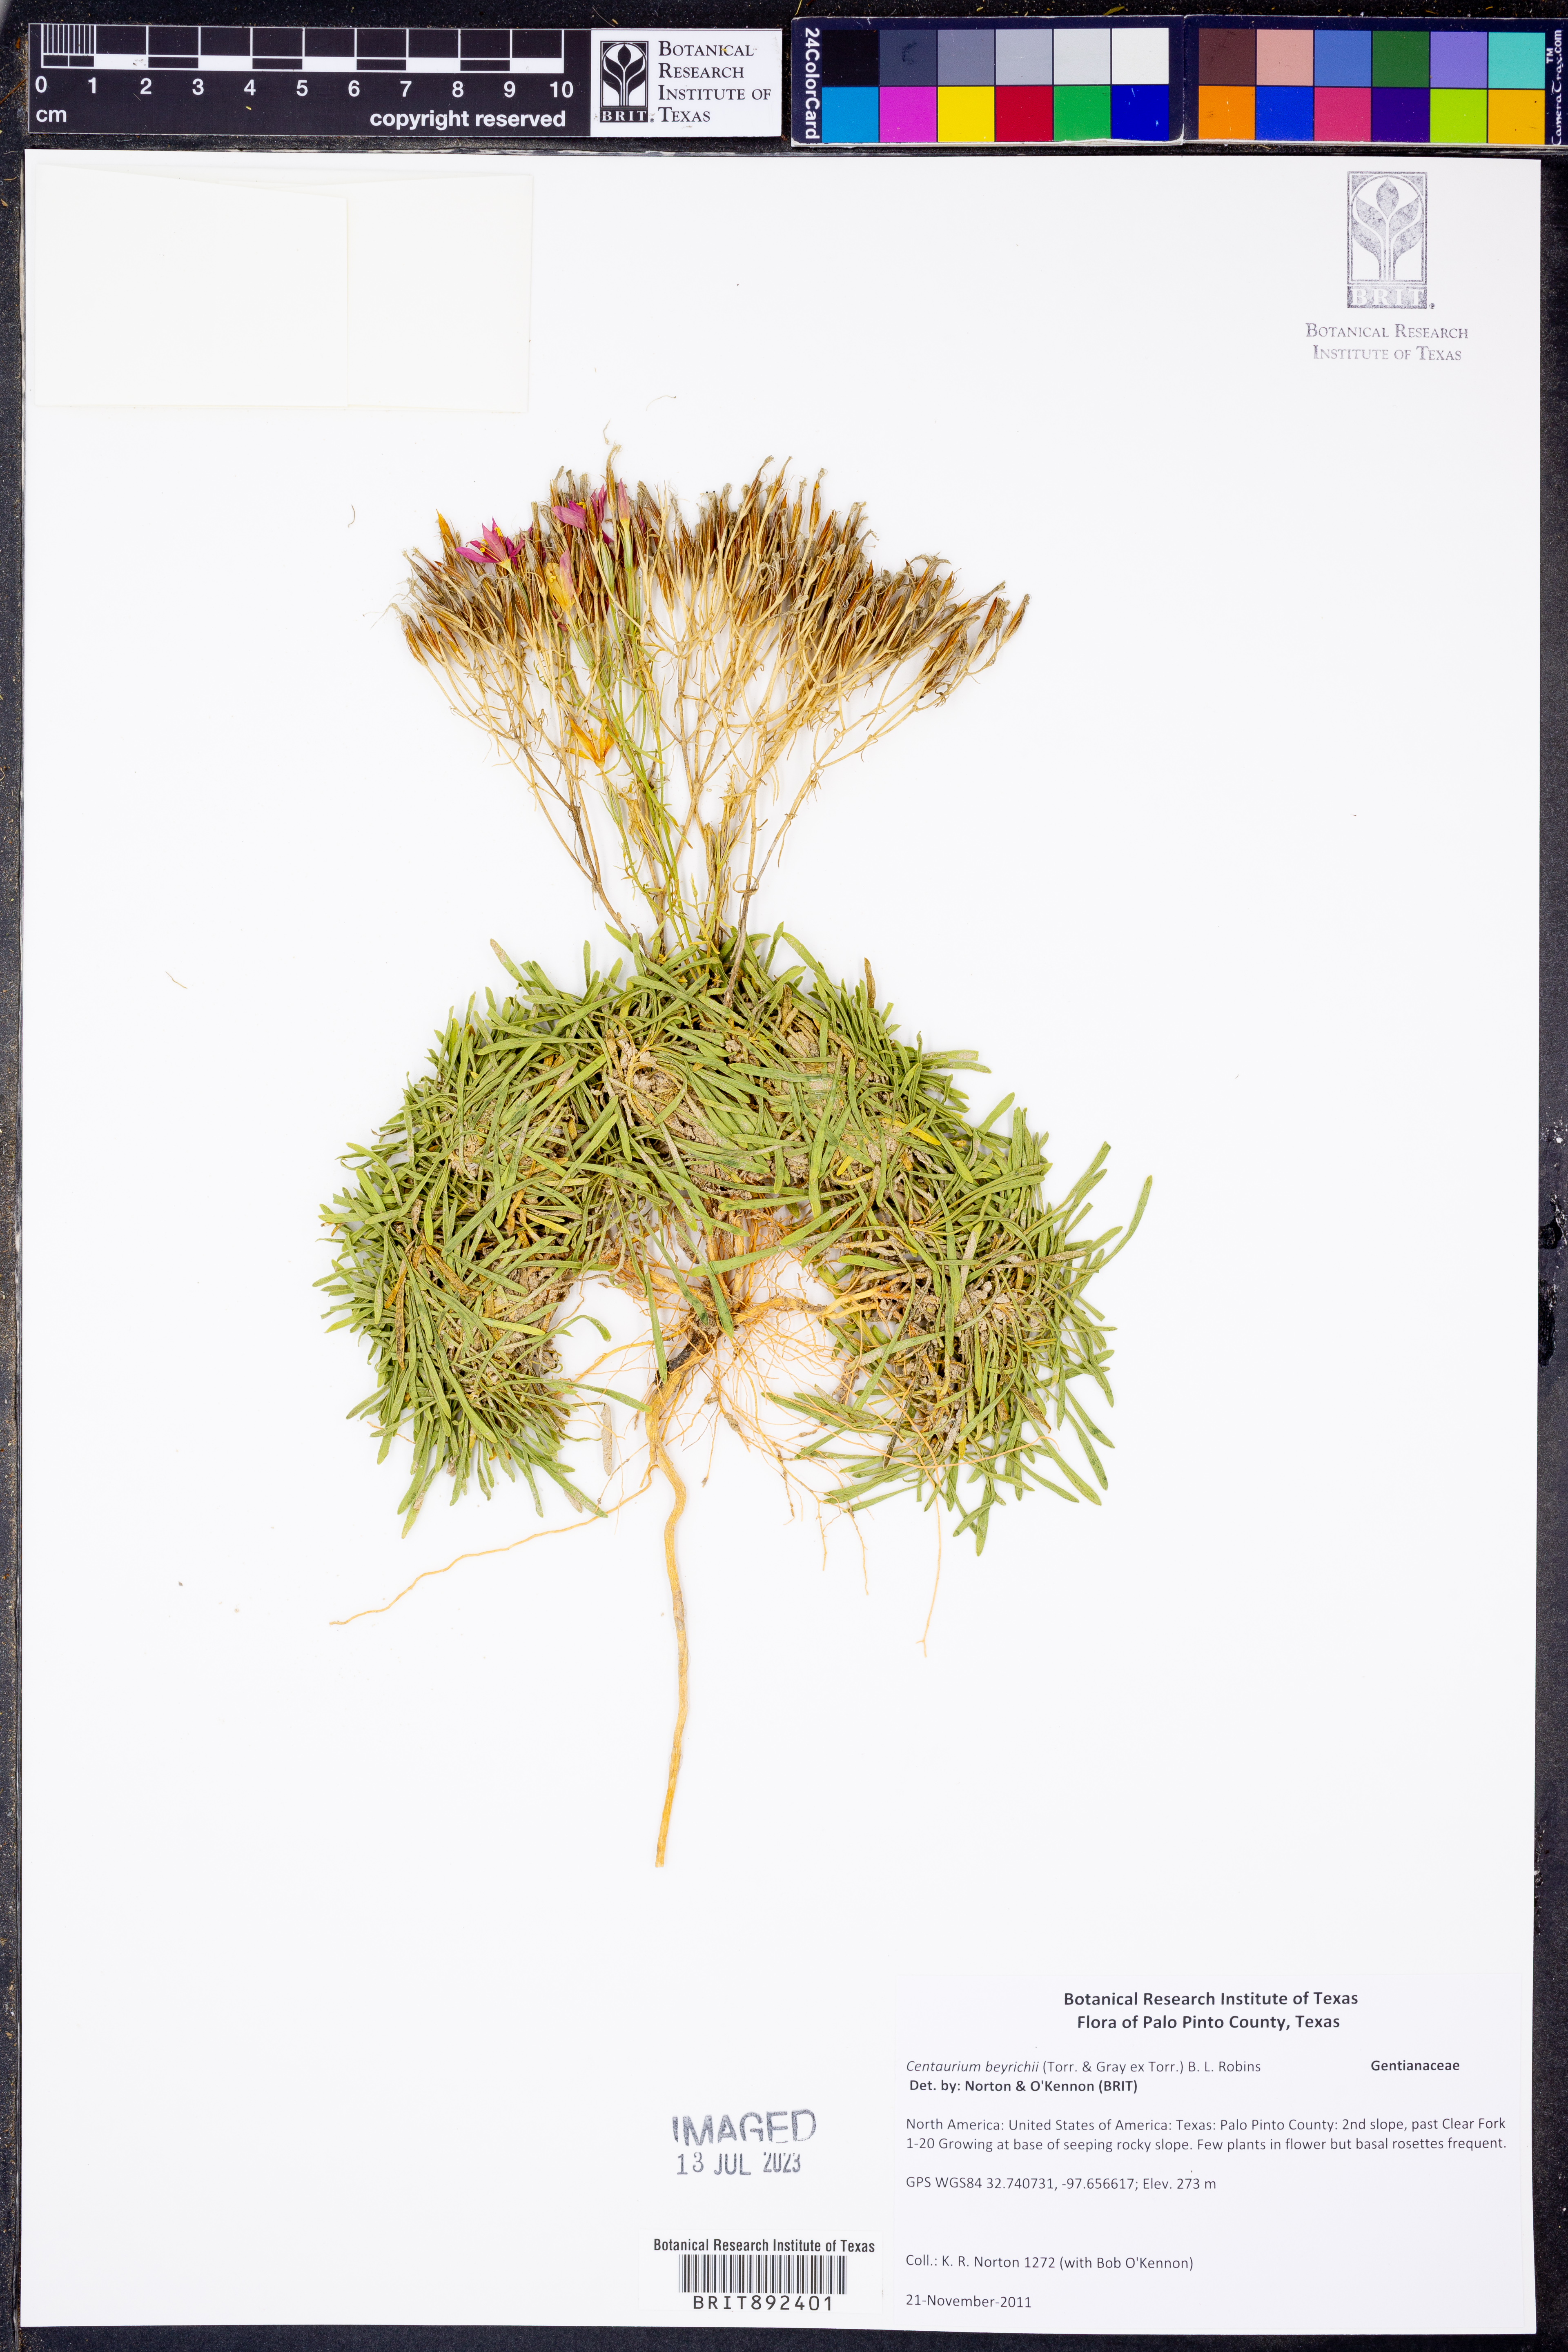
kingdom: Plantae
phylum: Tracheophyta
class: Magnoliopsida
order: Gentianales
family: Gentianaceae
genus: Zeltnera
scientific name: Zeltnera beyrichii
